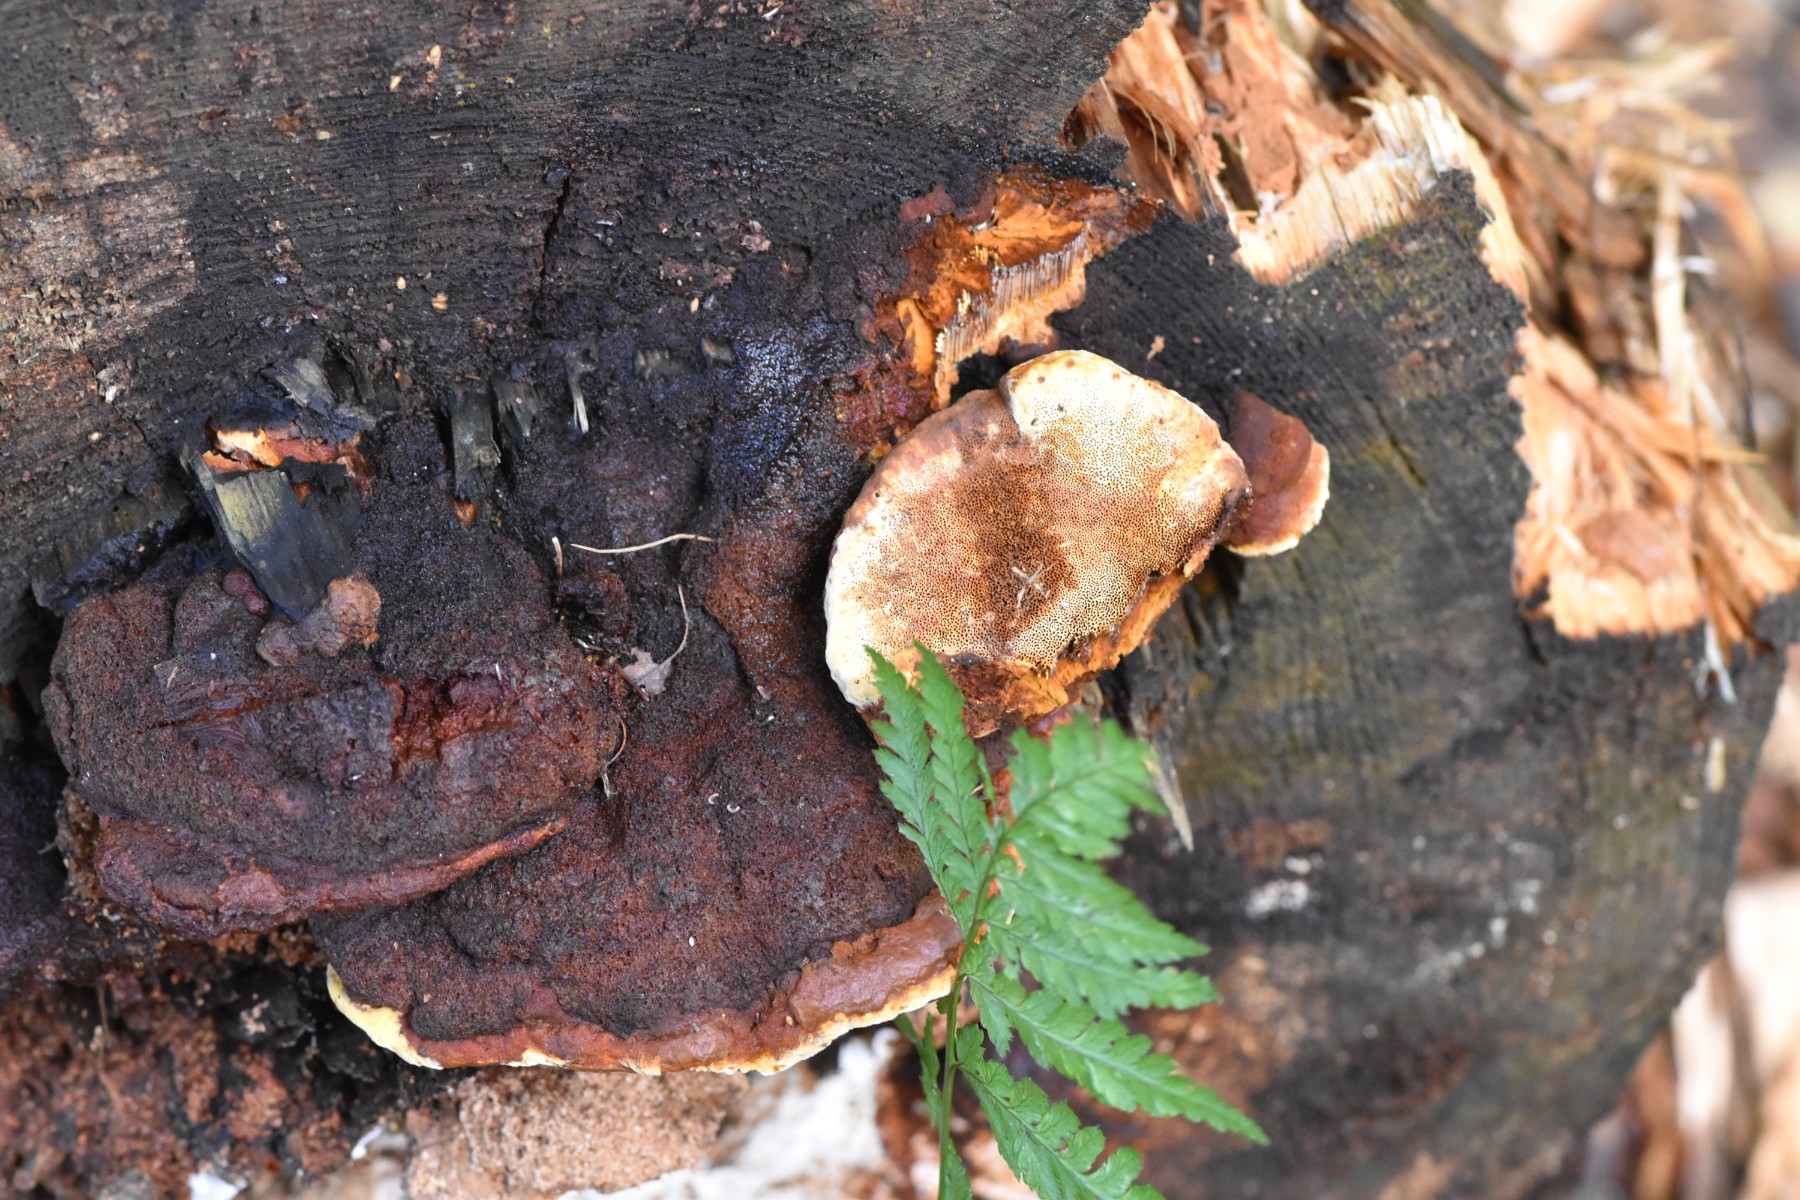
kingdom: Fungi
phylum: Basidiomycota
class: Agaricomycetes
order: Polyporales
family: Ischnodermataceae
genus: Ischnoderma
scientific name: Ischnoderma benzoinum
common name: gran-tjæreporesvamp
